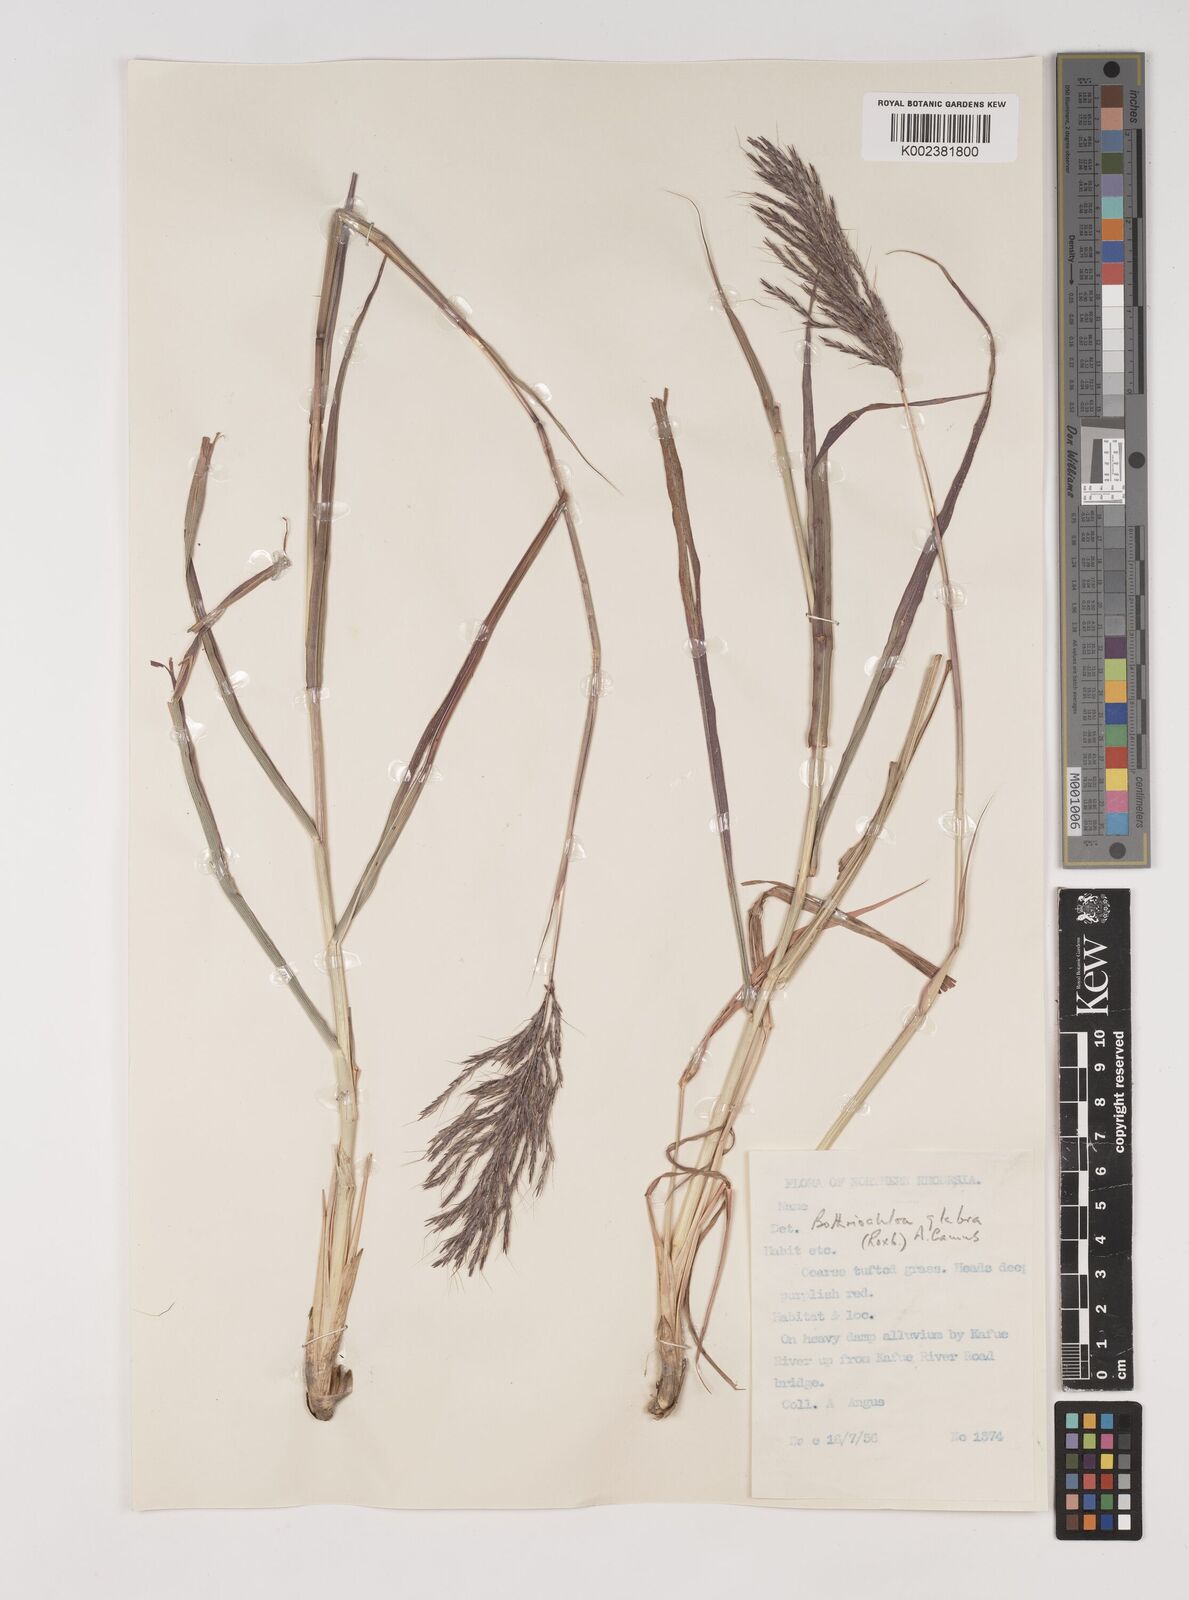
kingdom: Plantae
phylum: Tracheophyta
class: Liliopsida
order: Poales
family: Poaceae
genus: Bothriochloa
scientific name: Bothriochloa bladhii
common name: Caucasian bluestem
